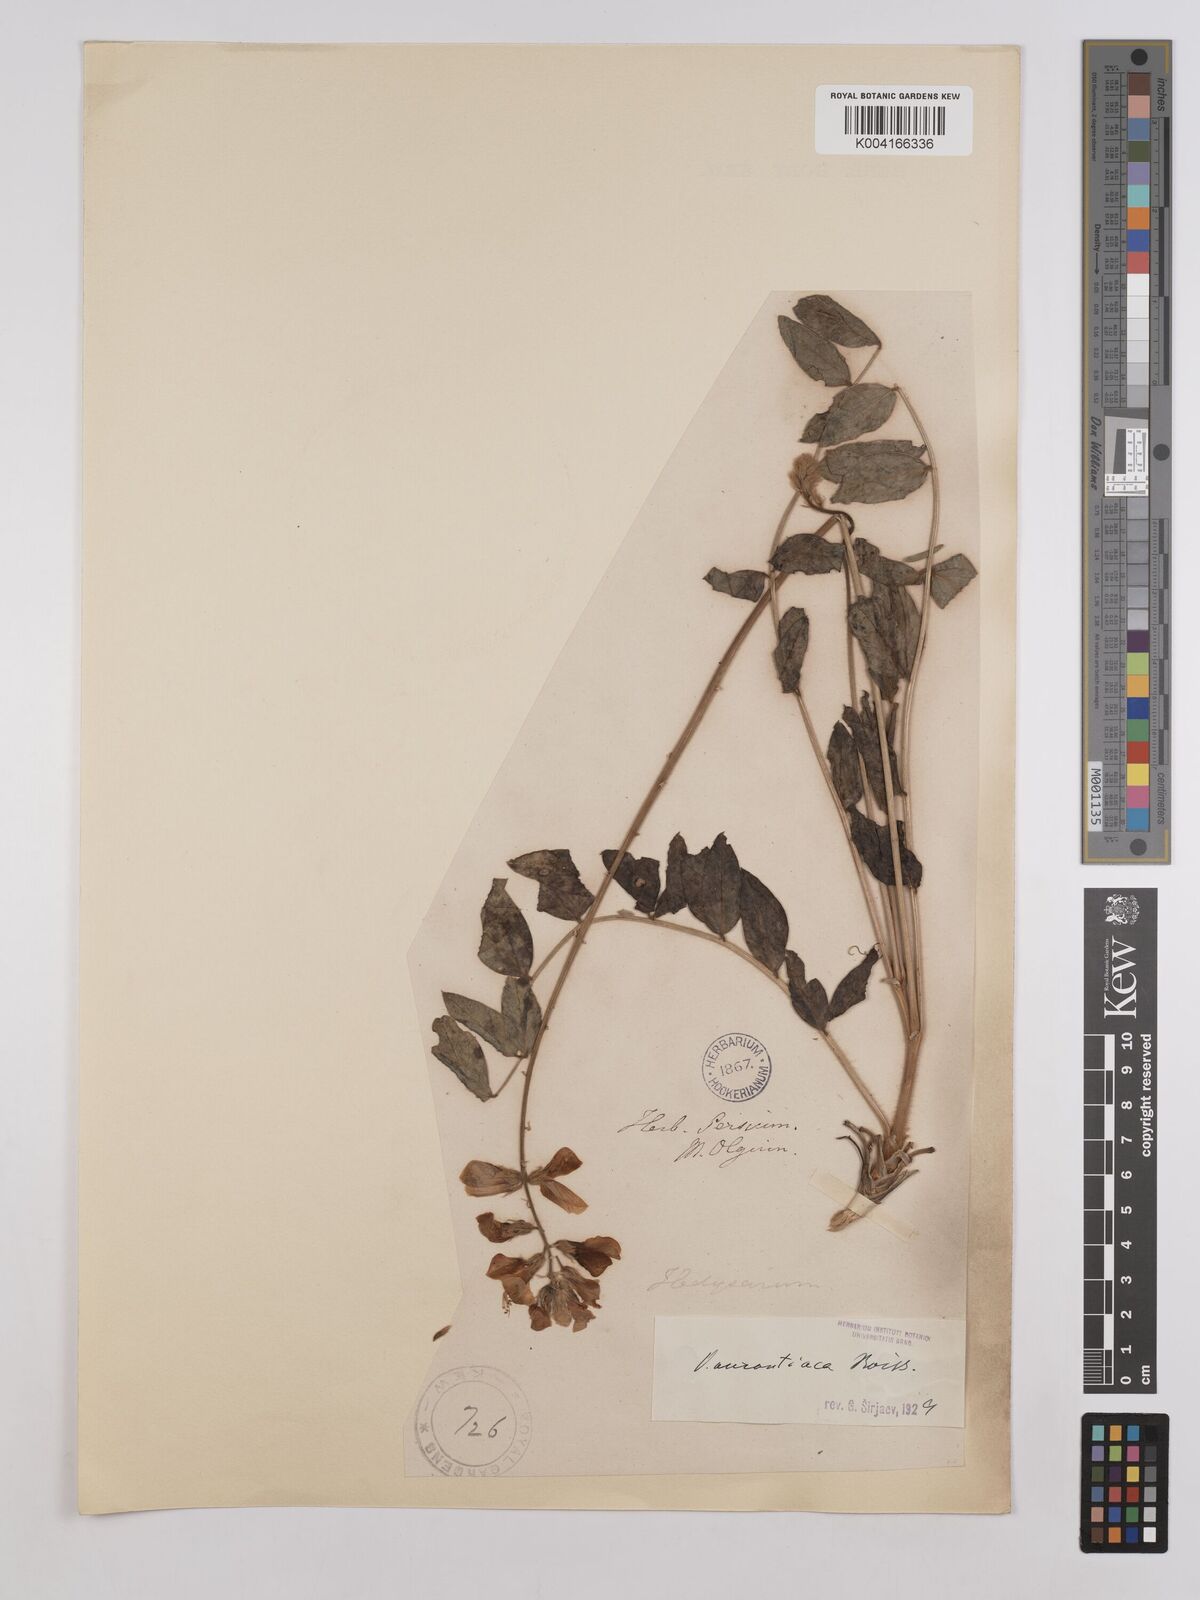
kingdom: Plantae
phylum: Tracheophyta
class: Magnoliopsida
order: Fabales
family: Fabaceae
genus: Onobrychis
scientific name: Onobrychis galegifolia
